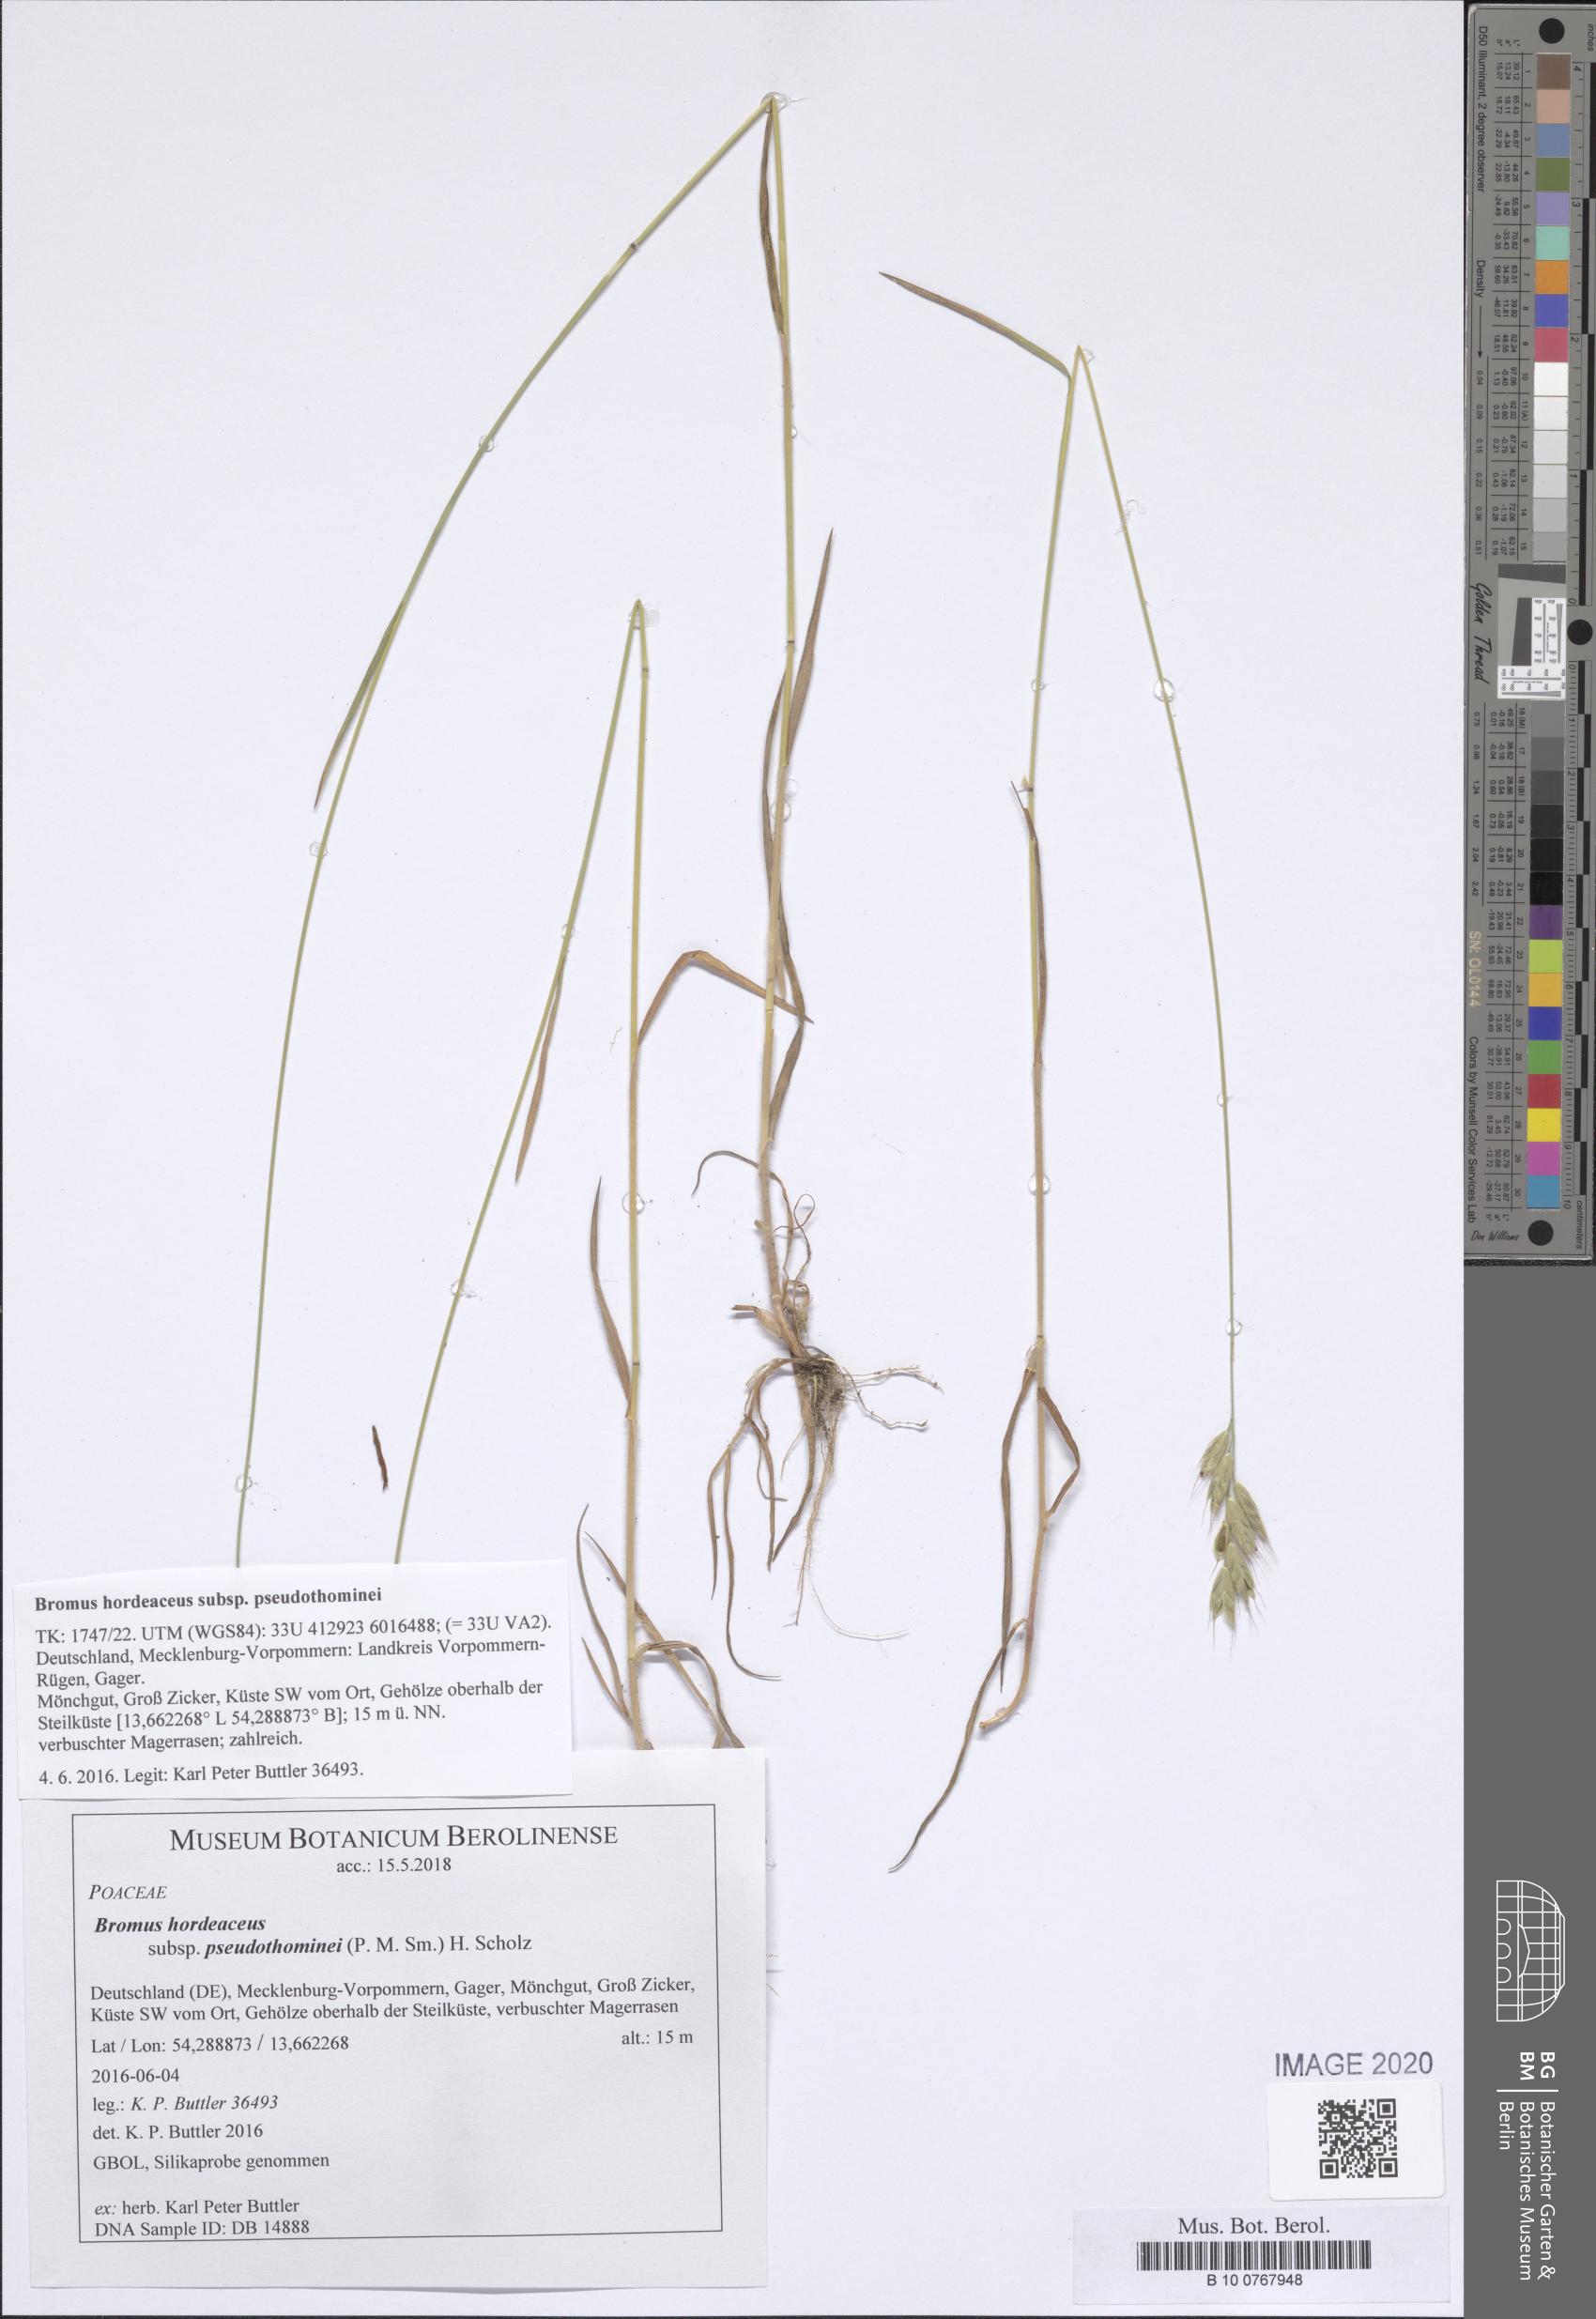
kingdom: Plantae
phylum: Tracheophyta
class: Liliopsida
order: Poales
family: Poaceae
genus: Bromus
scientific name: Bromus ferronii
